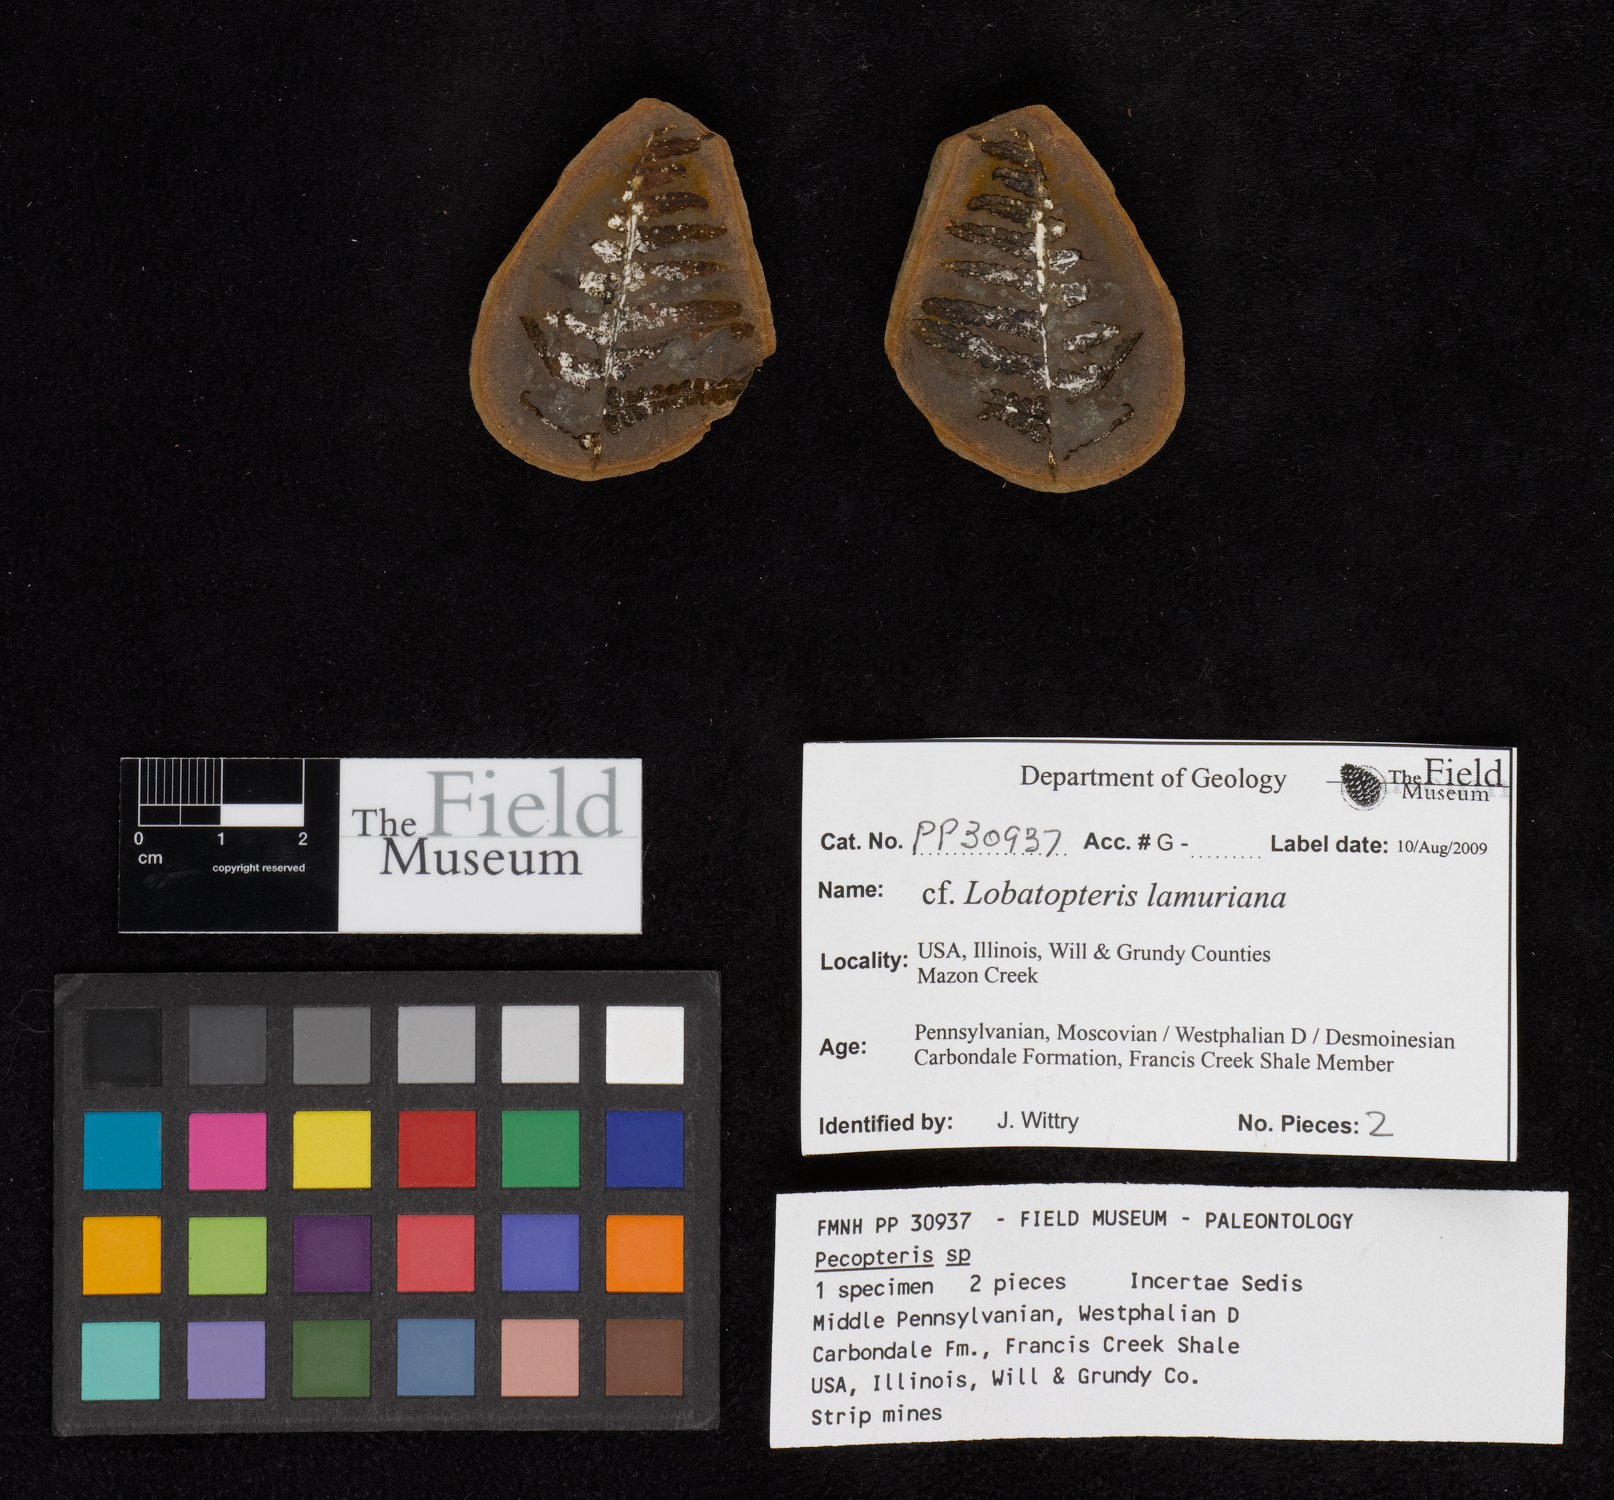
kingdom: Plantae
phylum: Tracheophyta
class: Polypodiopsida
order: Marattiales
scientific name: Marattiales
